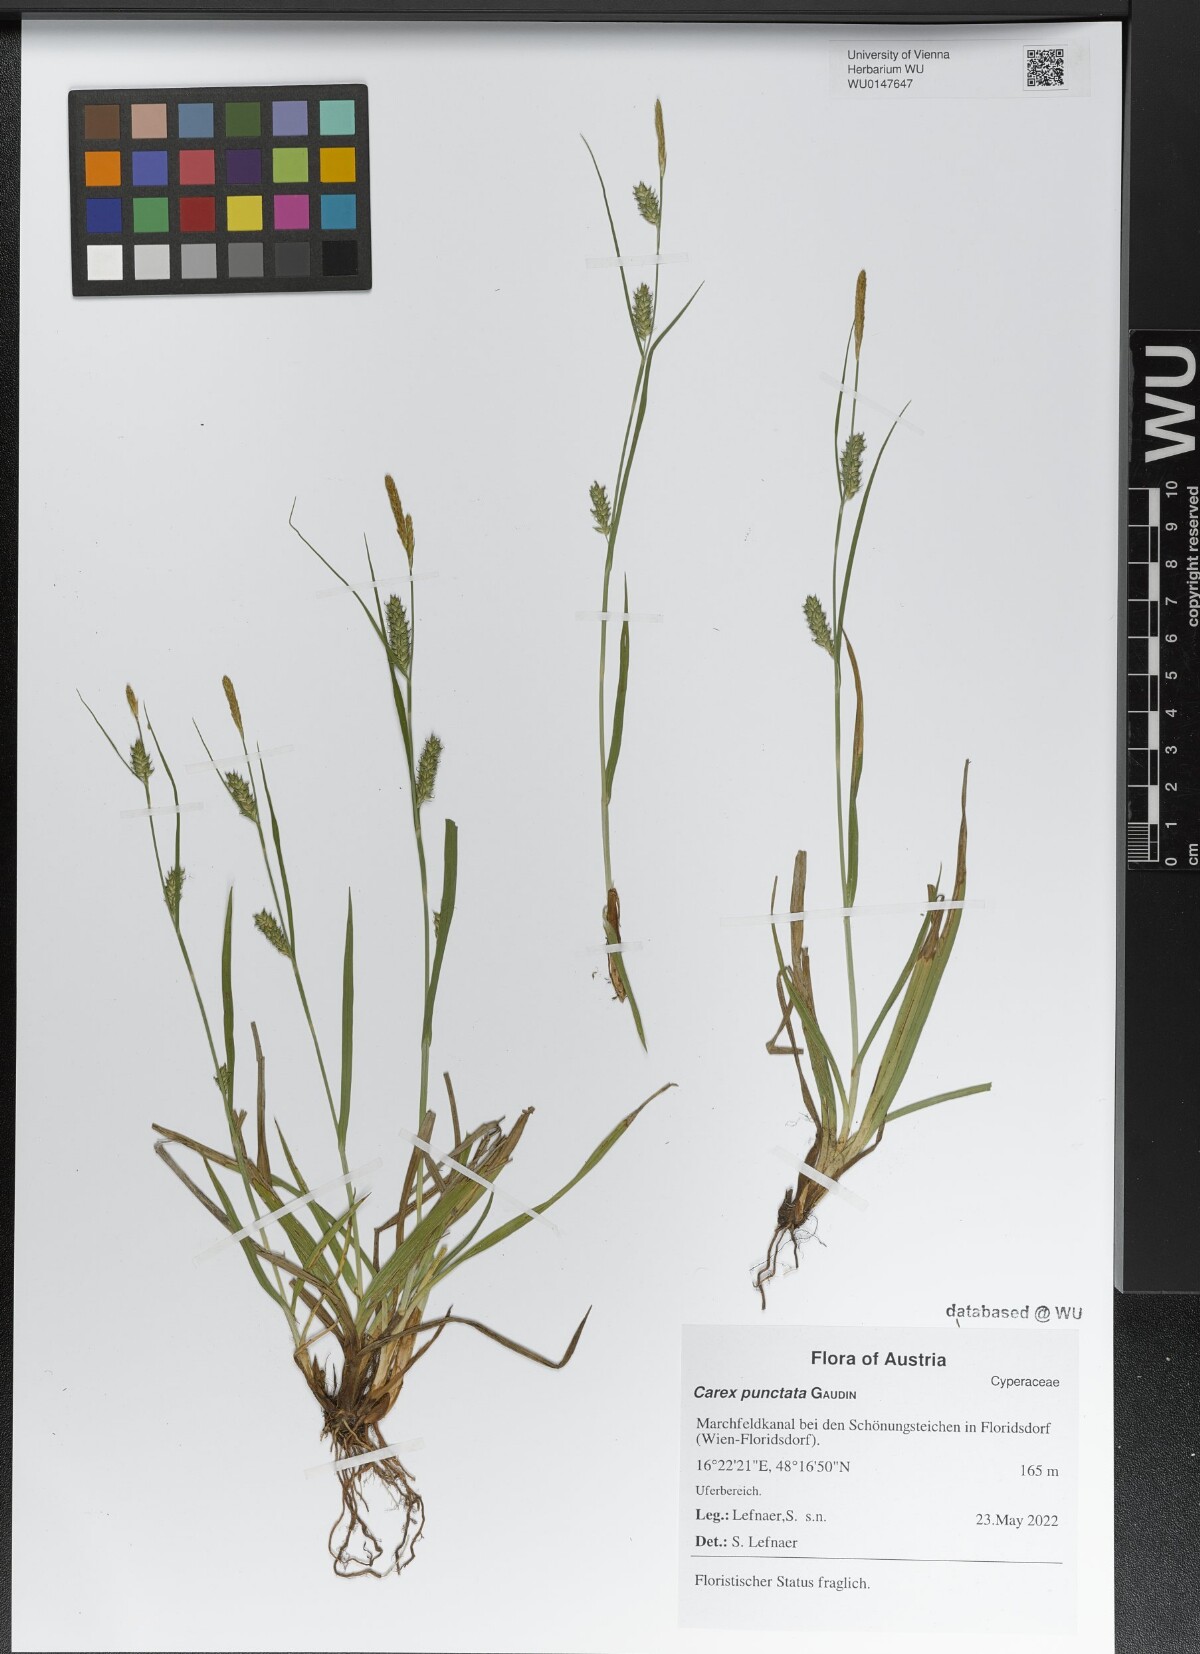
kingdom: Plantae
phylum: Tracheophyta
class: Liliopsida
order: Poales
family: Cyperaceae
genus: Carex
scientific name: Carex punctata
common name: Dotted sedge
